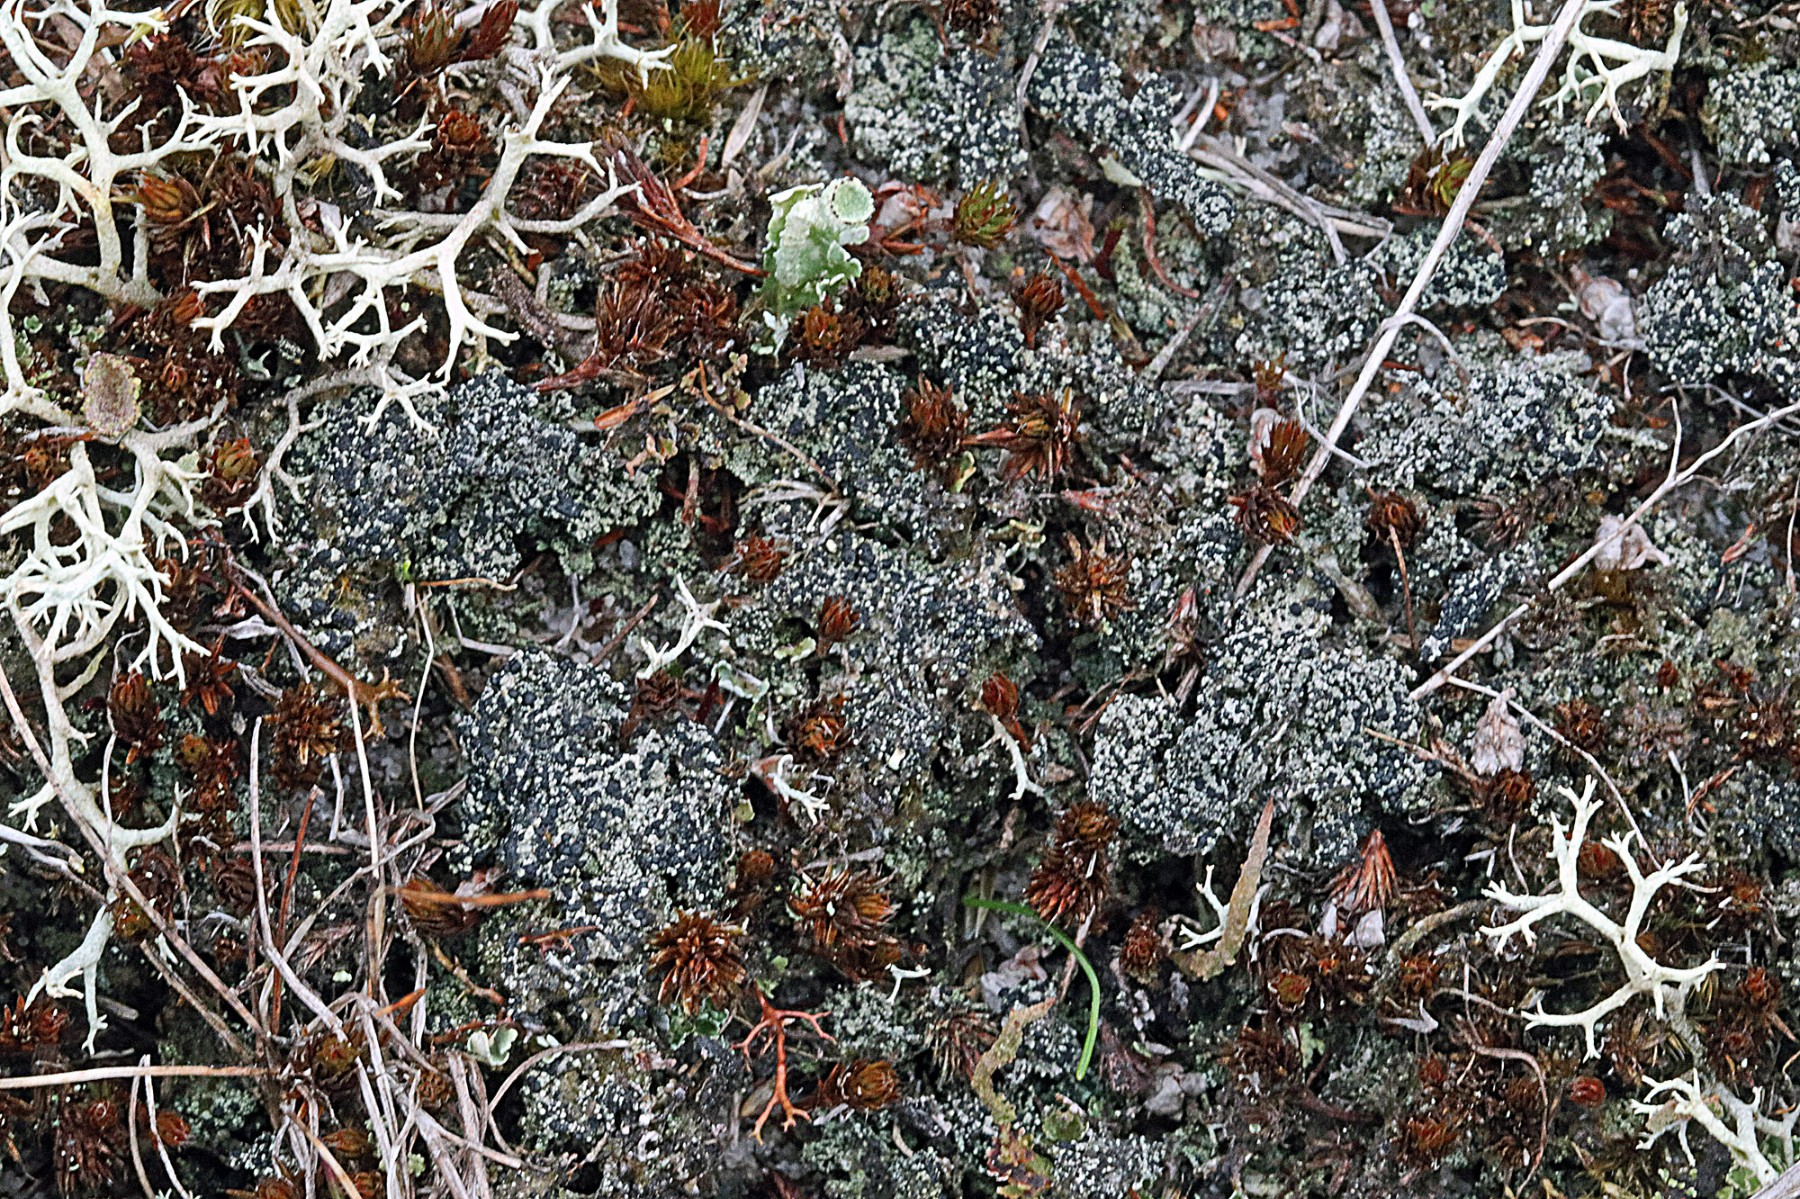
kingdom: Fungi
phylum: Ascomycota
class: Lecanoromycetes
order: Lecanorales
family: Byssolomataceae
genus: Micarea
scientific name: Micarea lignaria
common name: tørve-knaplav
